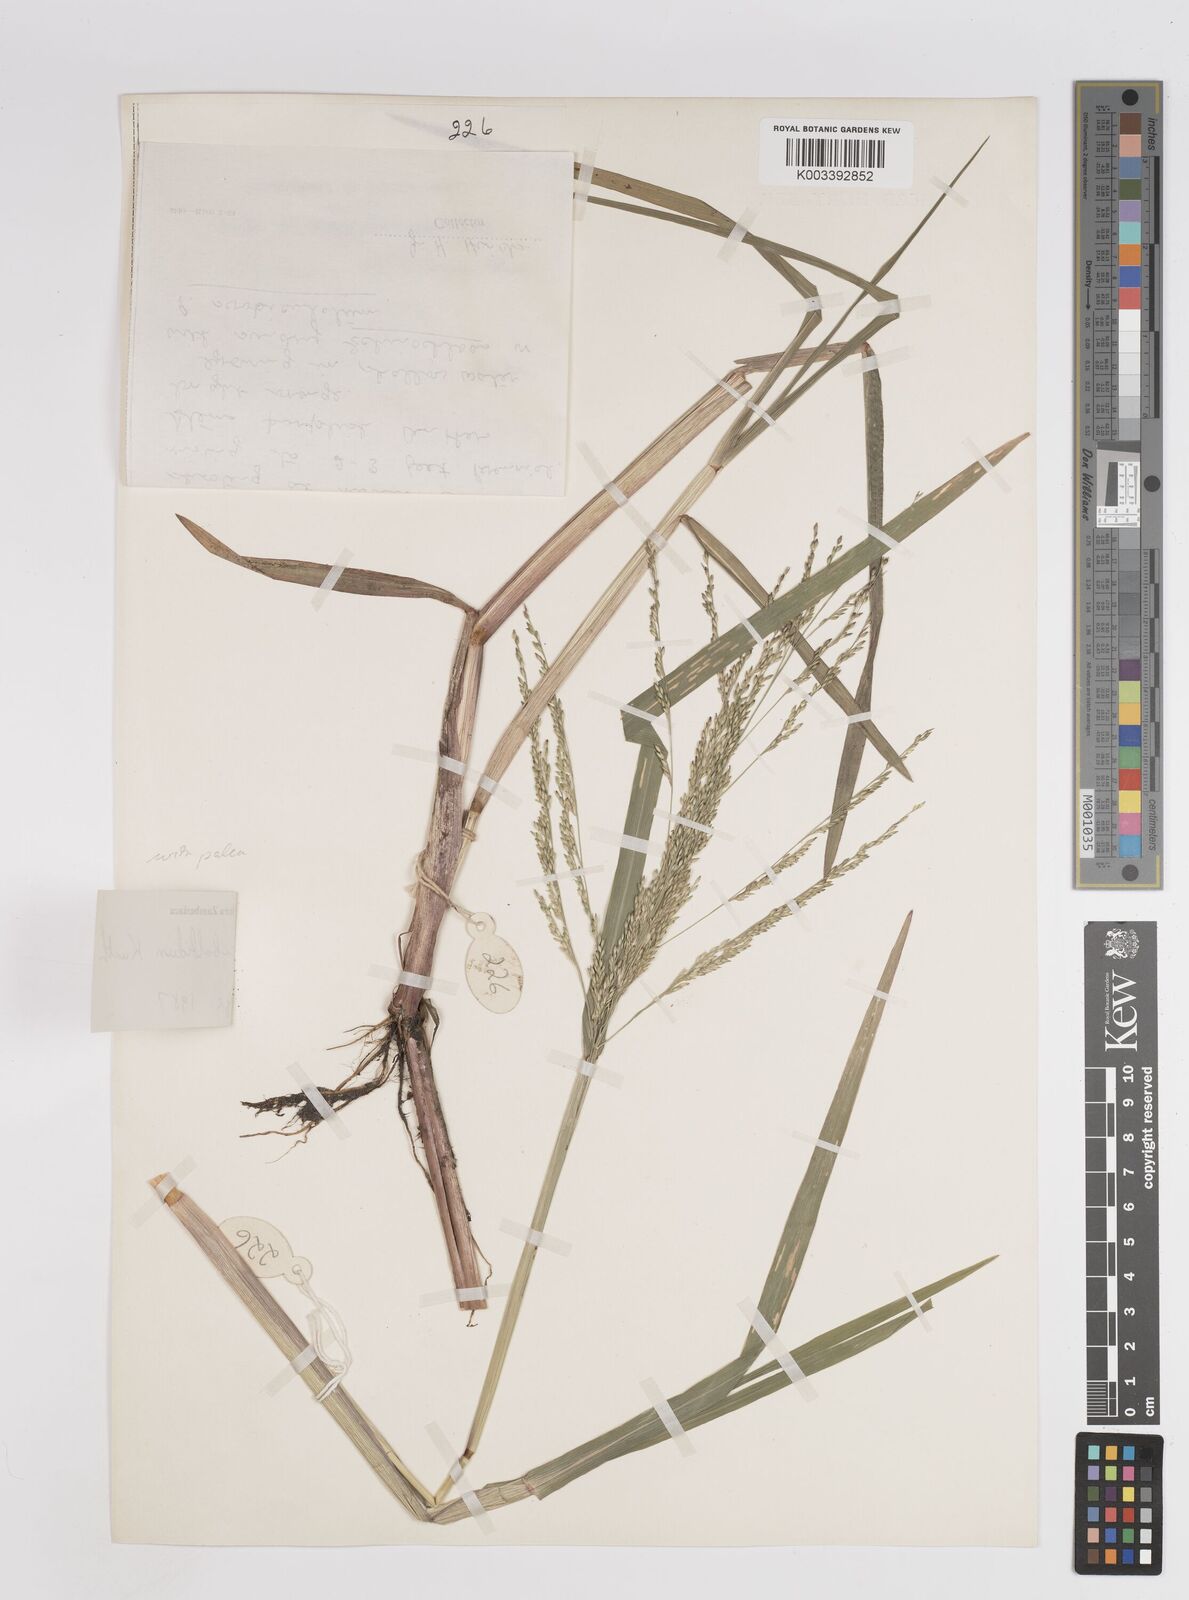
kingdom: Plantae
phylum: Tracheophyta
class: Liliopsida
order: Poales
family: Poaceae
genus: Panicum
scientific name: Panicum subalbidum
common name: Elbow buffalo grass
